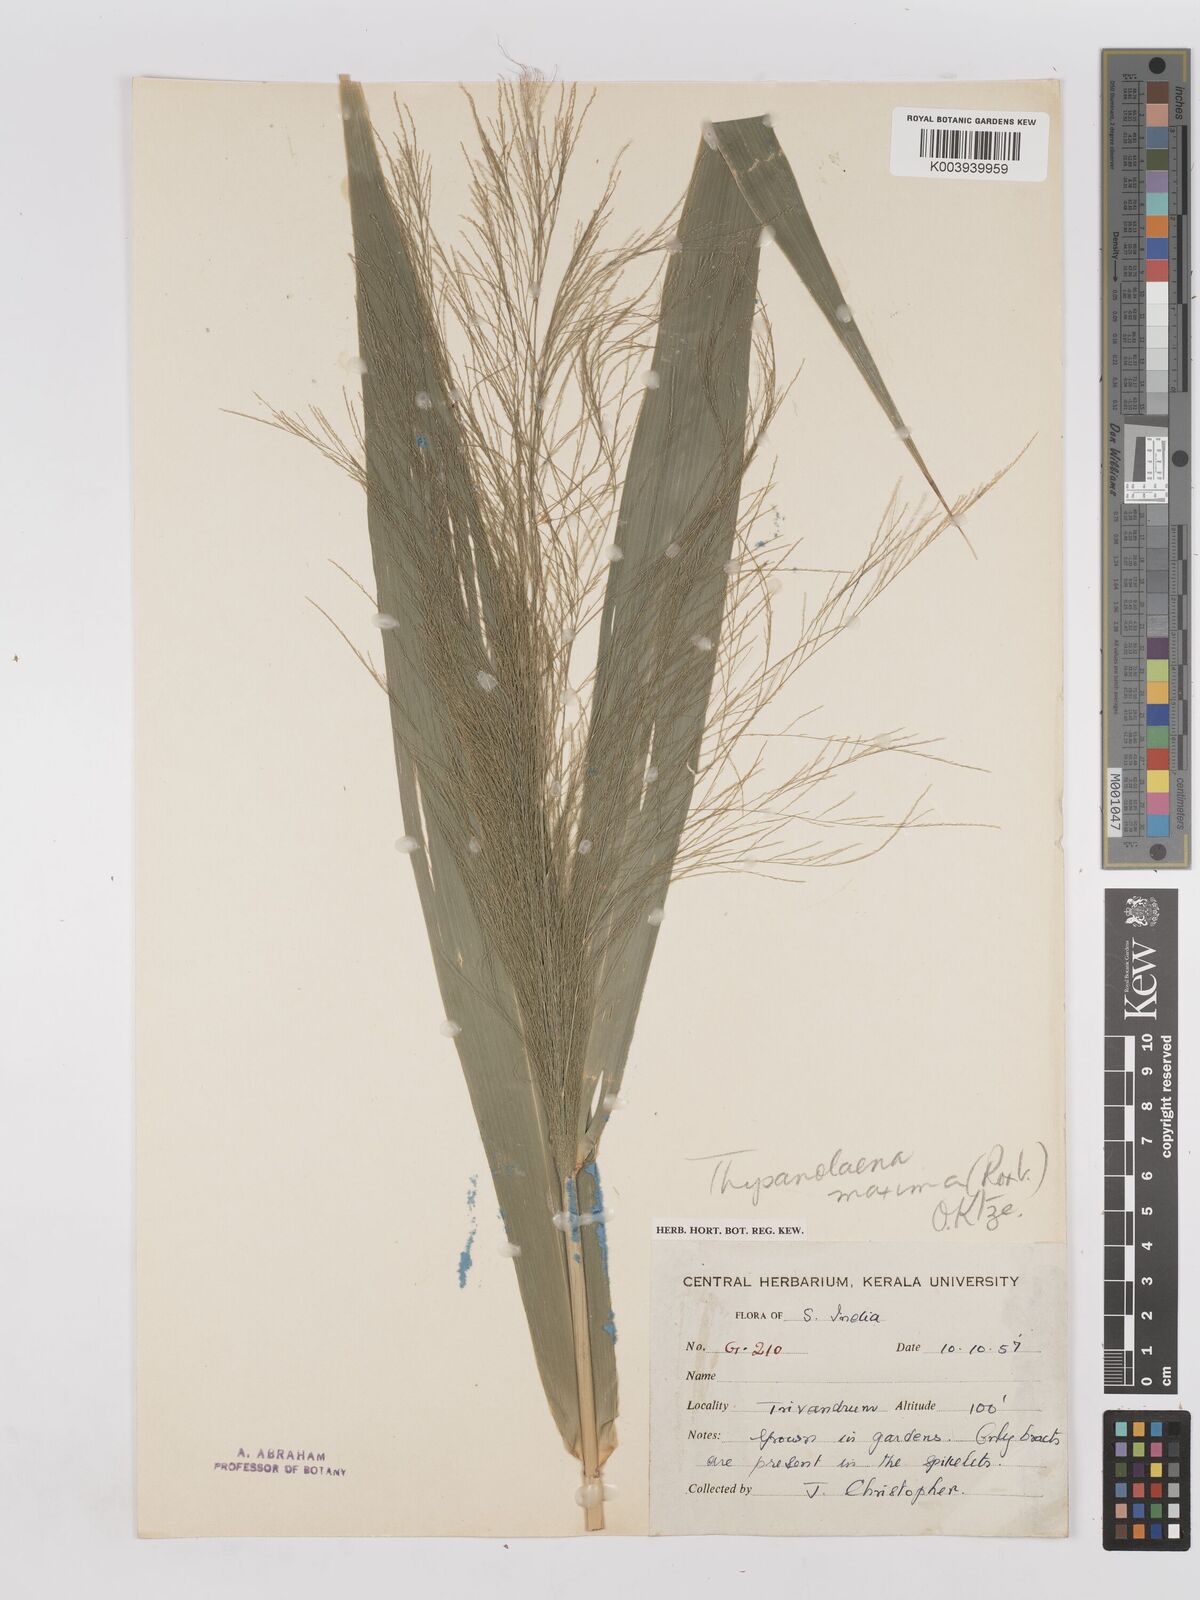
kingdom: Plantae
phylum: Tracheophyta
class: Liliopsida
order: Poales
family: Poaceae
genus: Thysanolaena
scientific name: Thysanolaena latifolia
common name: Tiger grass
